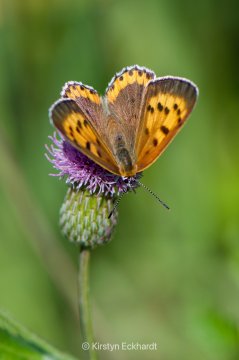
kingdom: Animalia
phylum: Arthropoda
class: Insecta
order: Lepidoptera
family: Sesiidae
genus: Sesia
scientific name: Sesia Lycaena hyllus
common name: Bronze Copper
